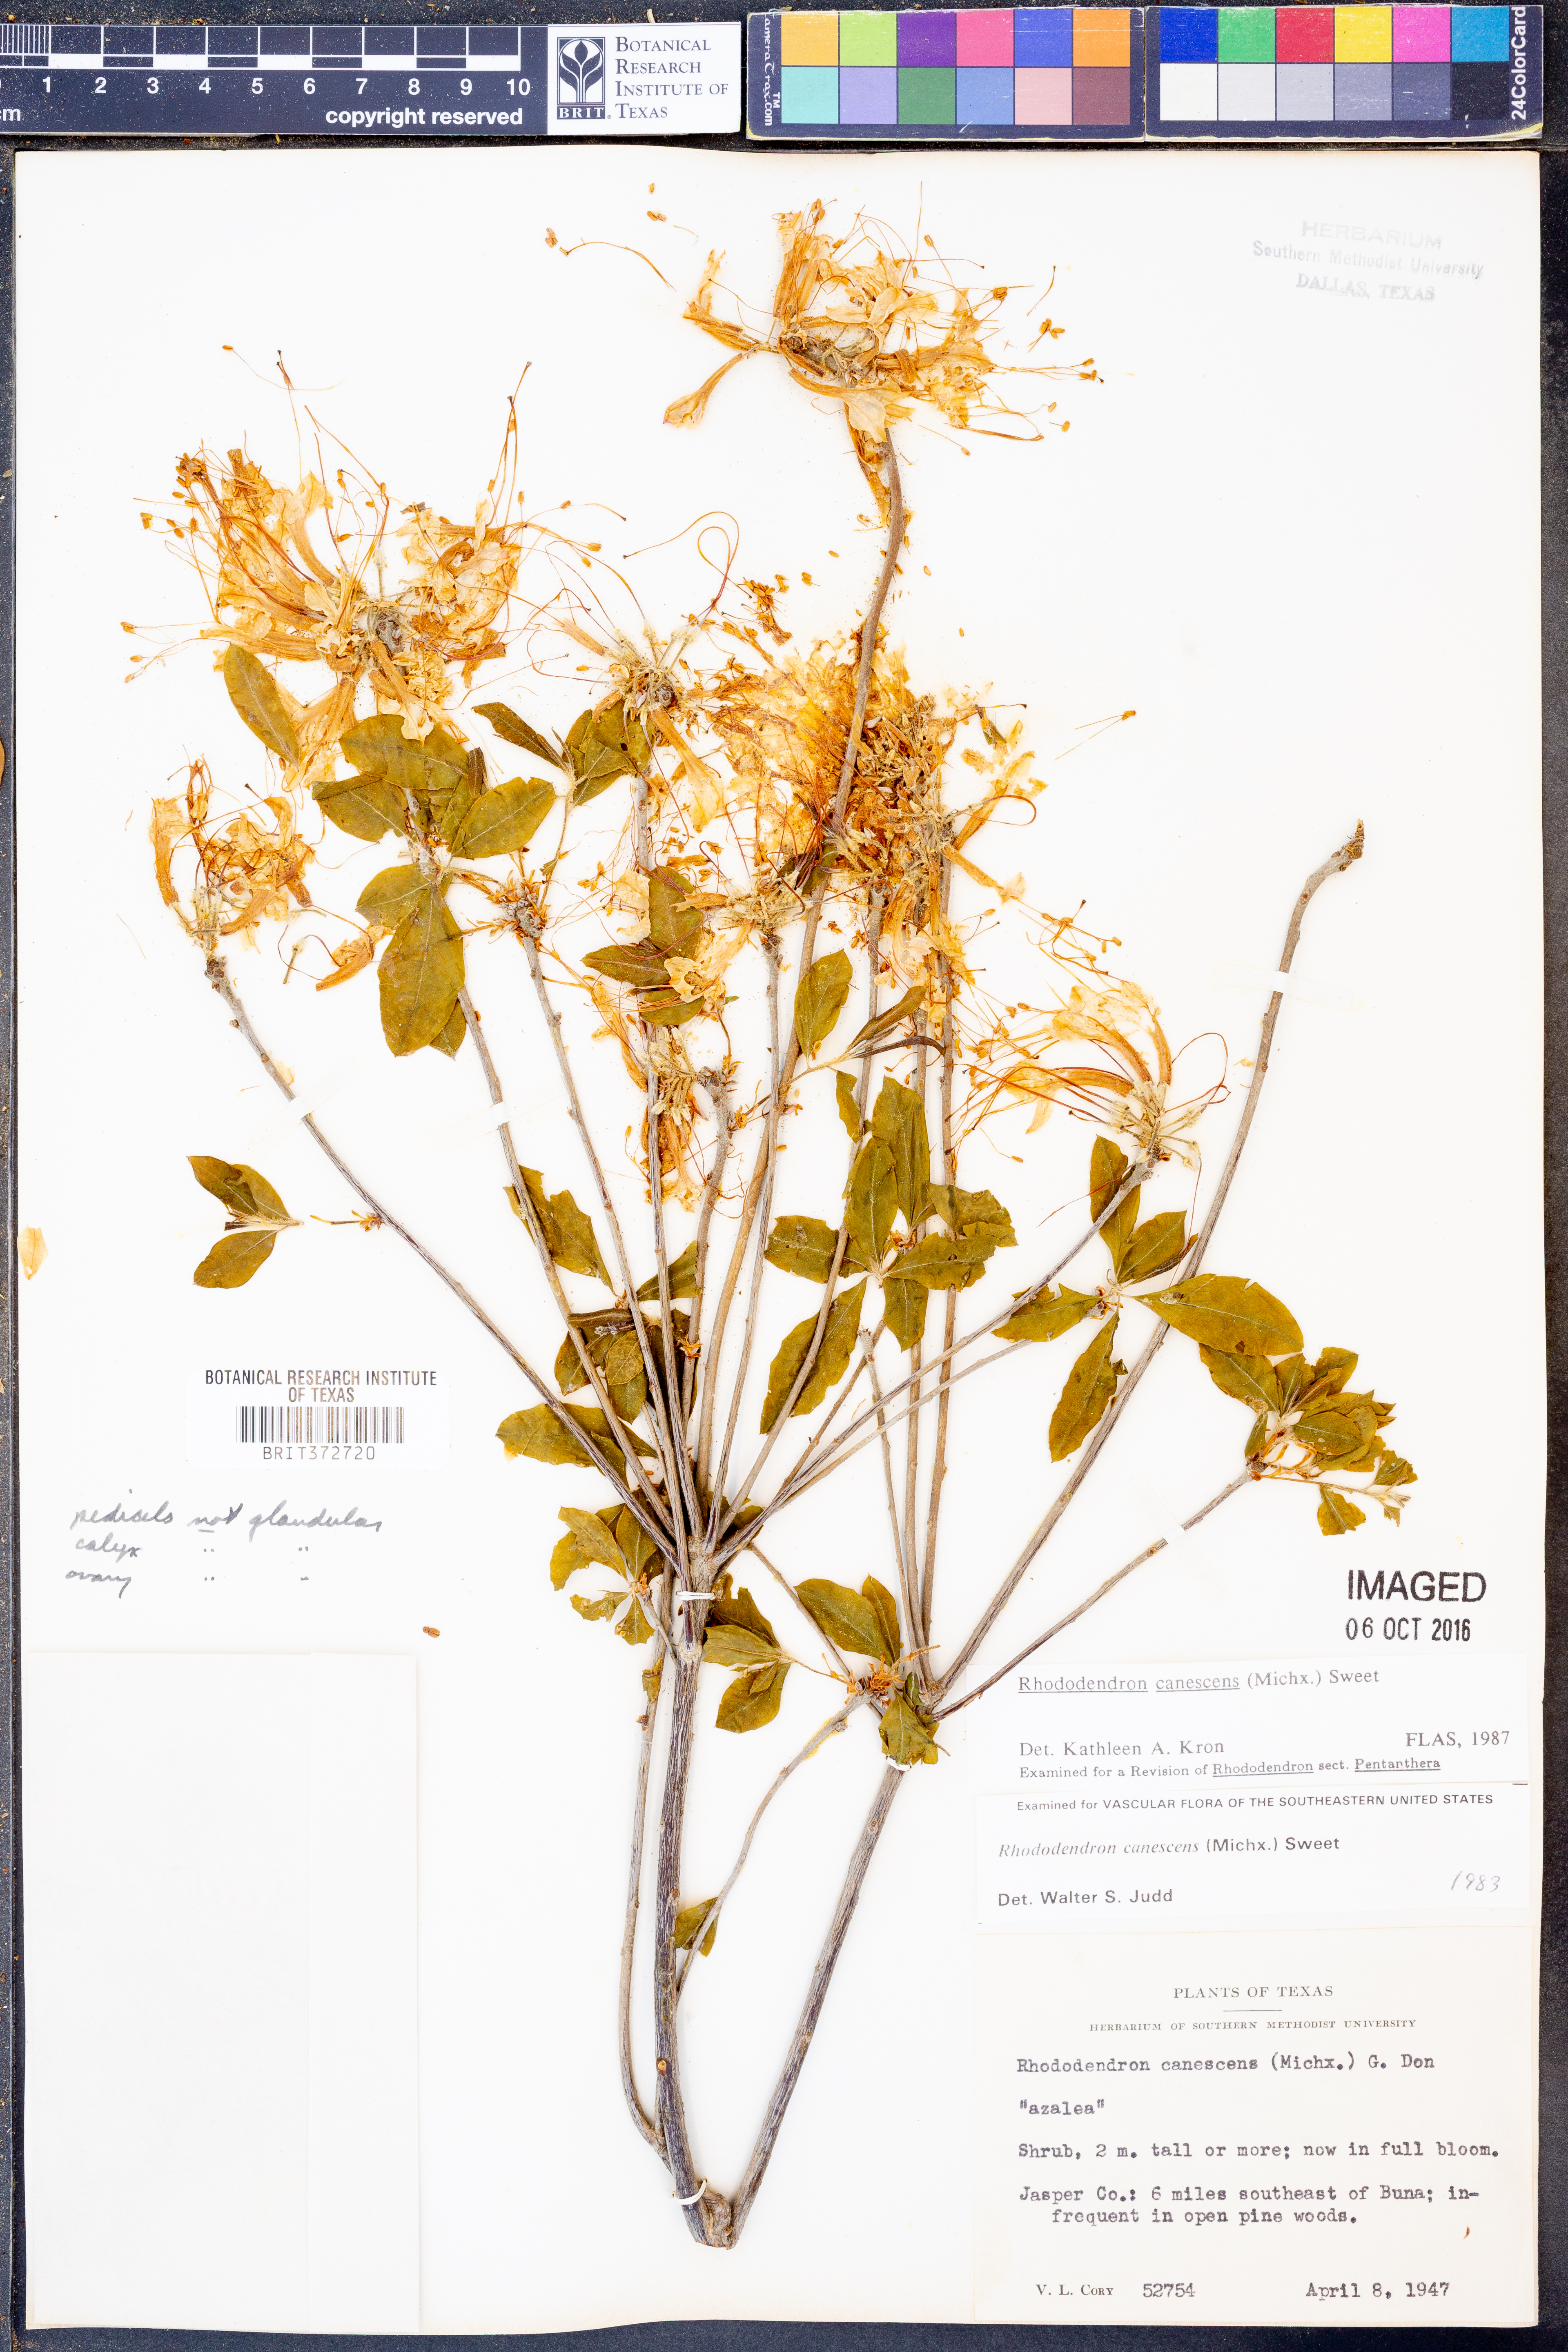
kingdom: Plantae
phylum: Tracheophyta
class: Magnoliopsida
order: Ericales
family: Ericaceae
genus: Rhododendron
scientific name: Rhododendron canescens
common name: Mountain azalea
